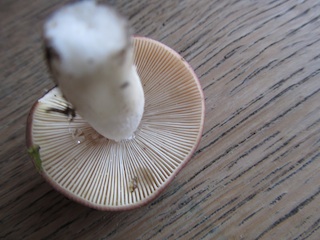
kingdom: Fungi
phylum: Basidiomycota
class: Agaricomycetes
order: Russulales
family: Russulaceae
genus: Russula
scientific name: Russula atrorubens
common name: sortrød skørhat
